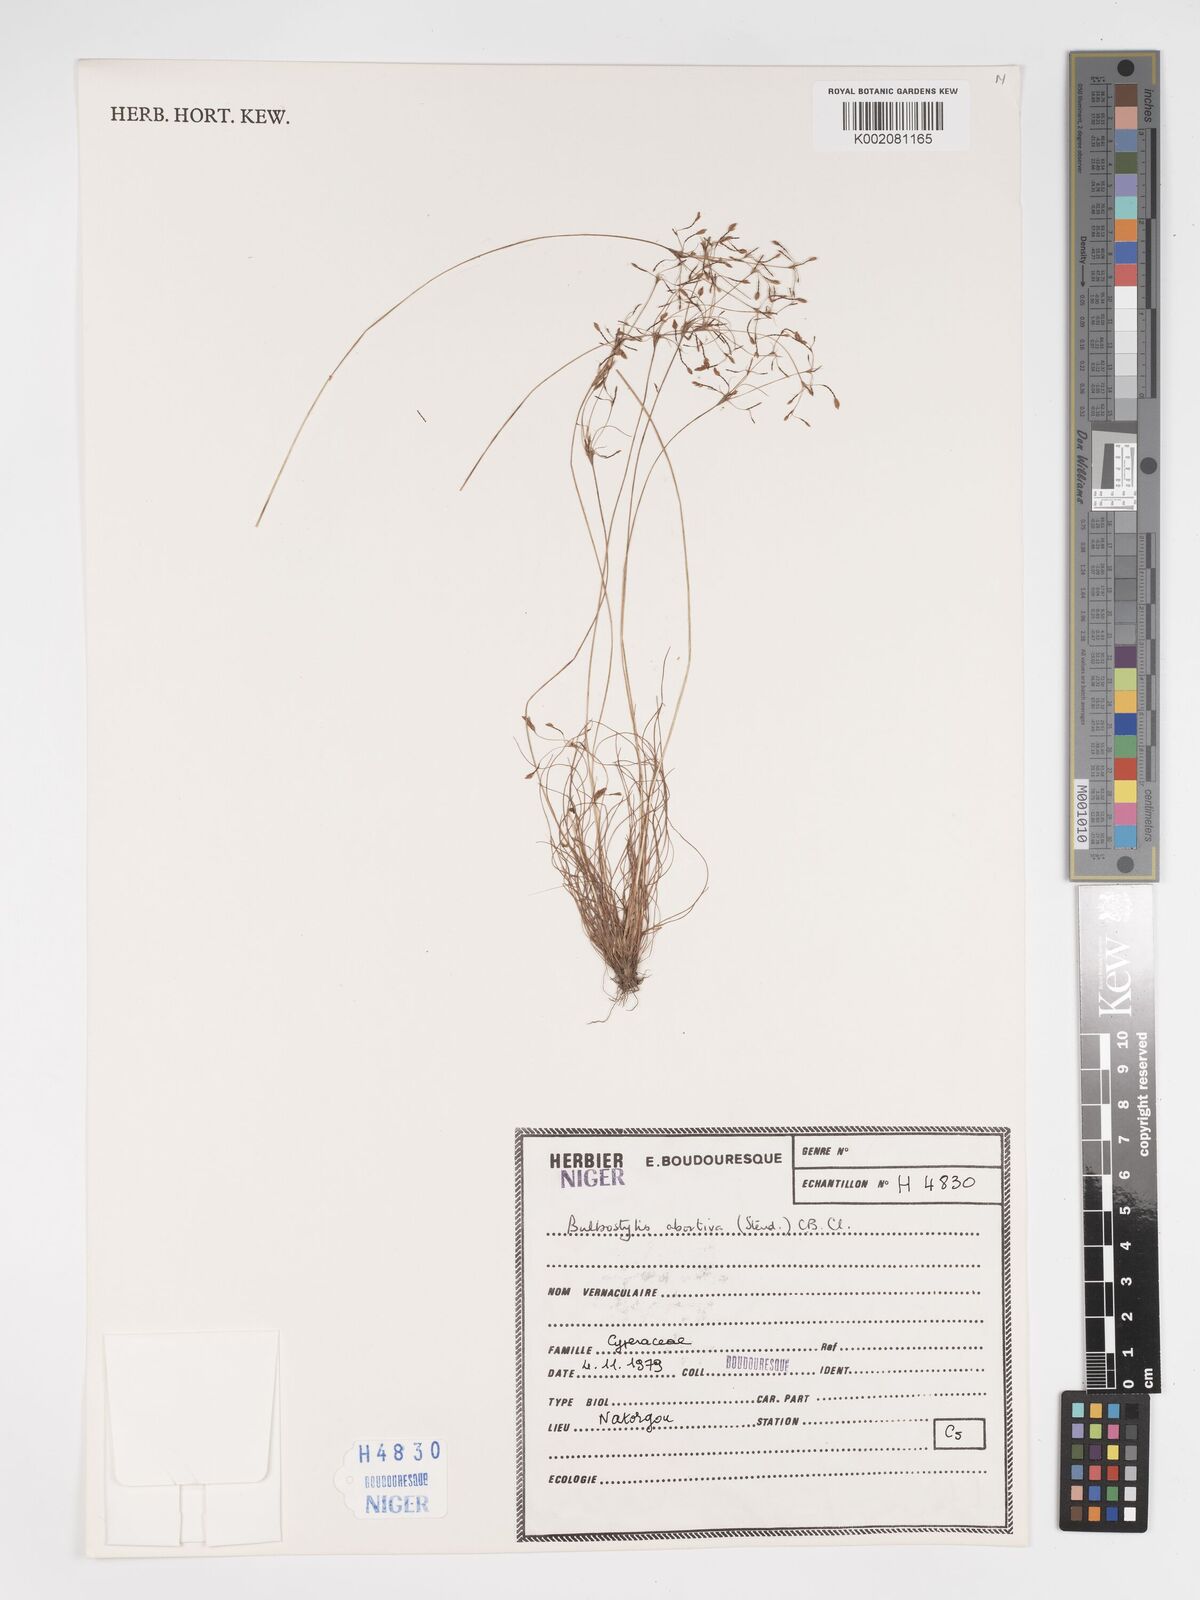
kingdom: Plantae
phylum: Tracheophyta
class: Liliopsida
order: Poales
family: Cyperaceae
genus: Bulbostylis
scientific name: Bulbostylis abortiva
